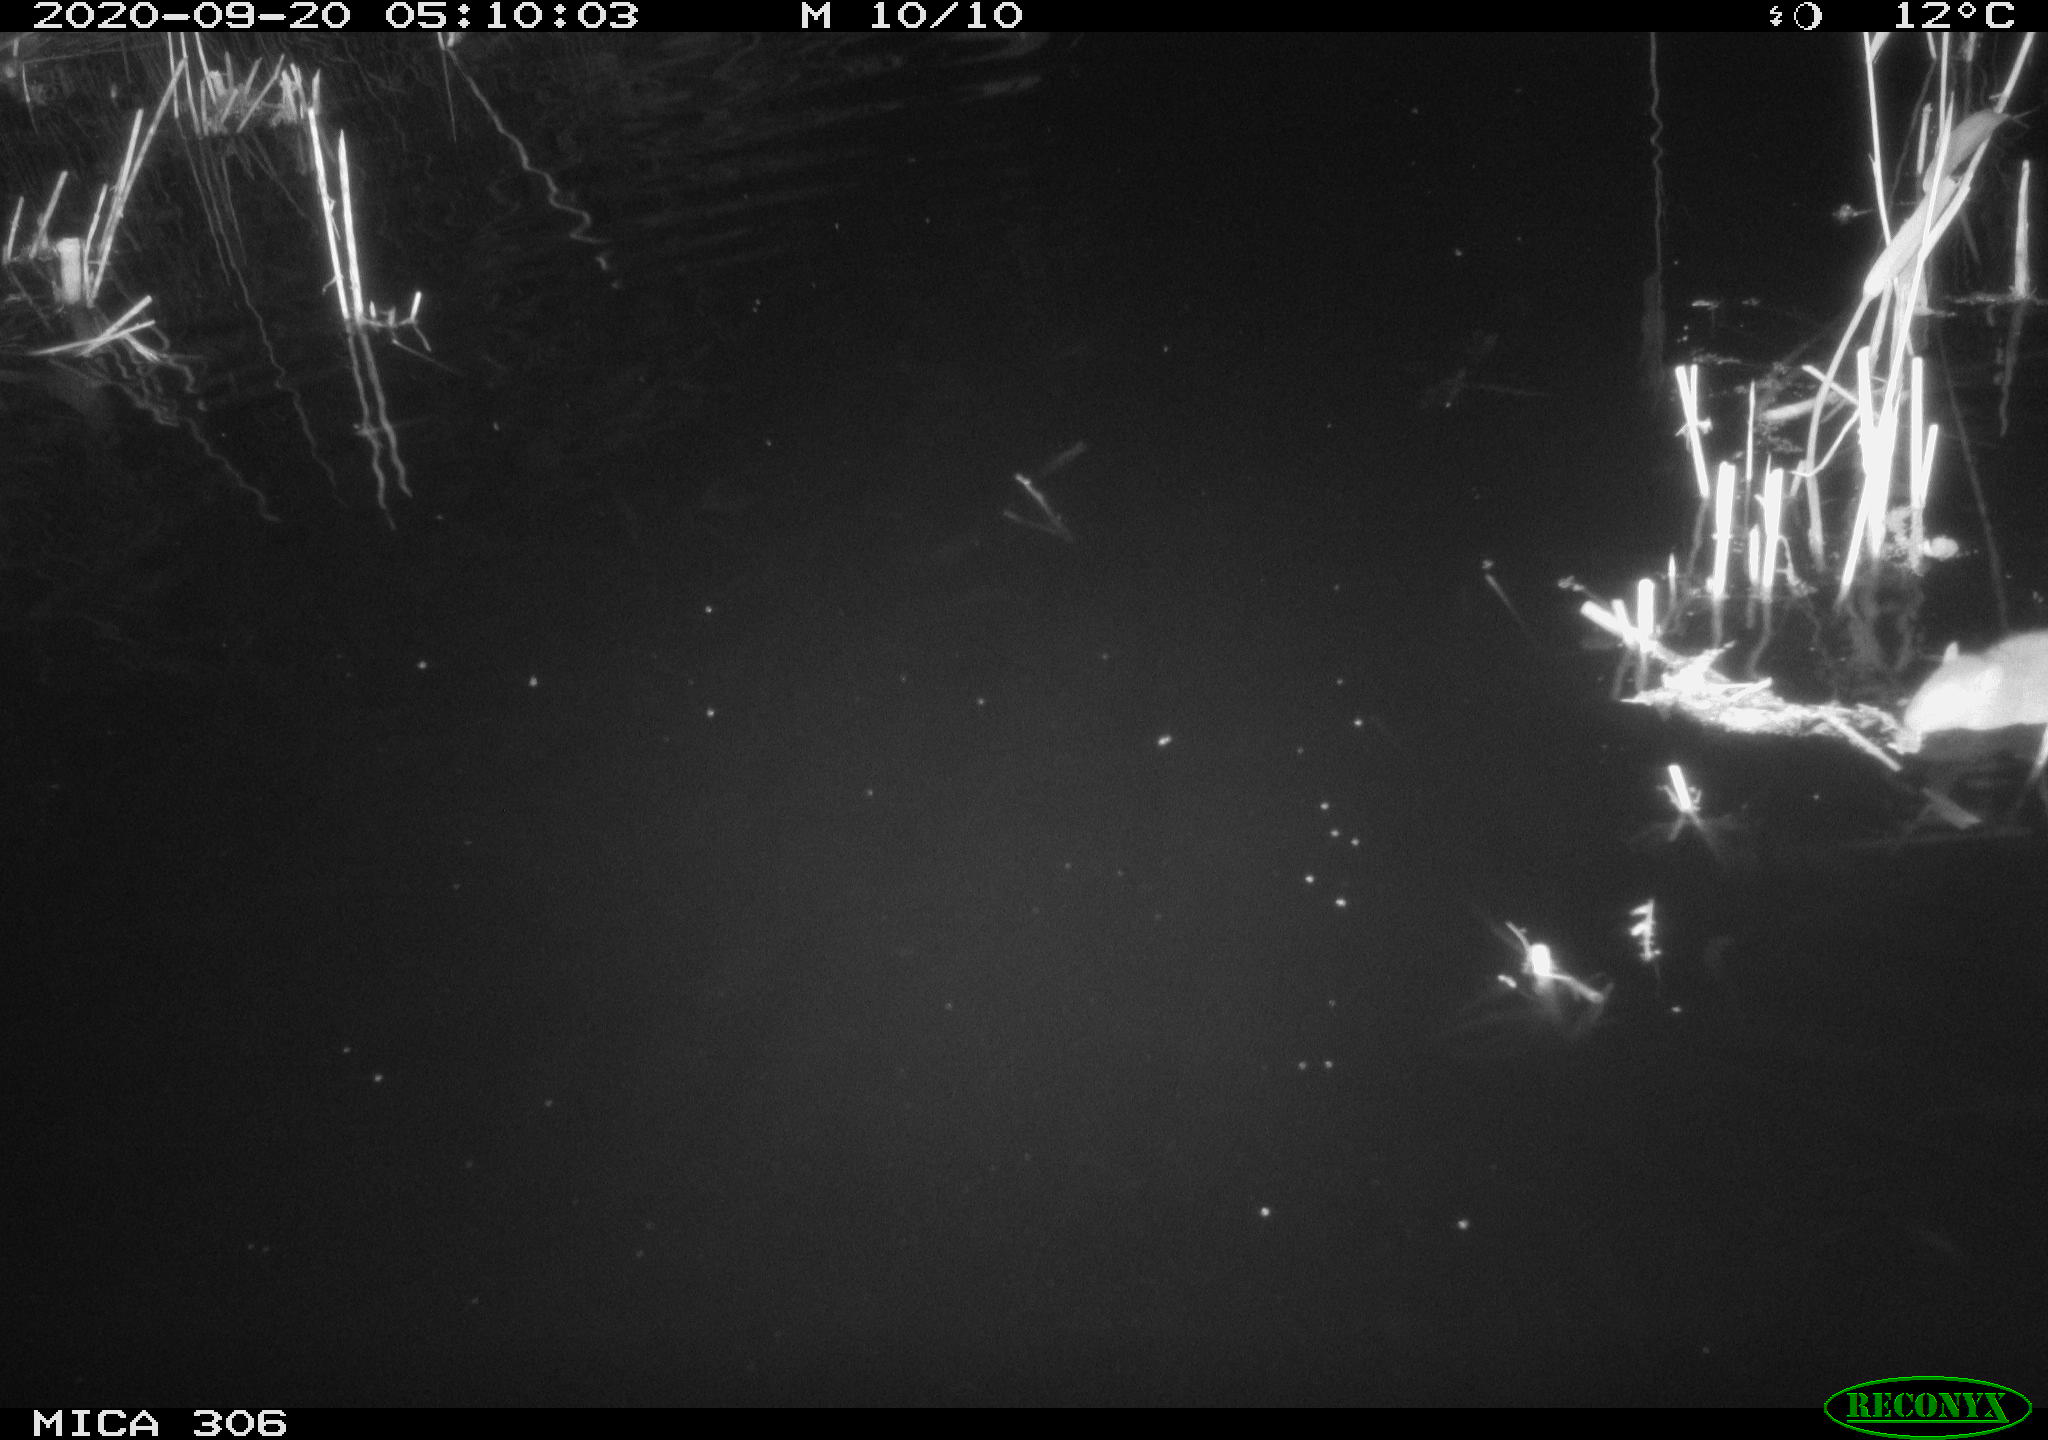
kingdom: Animalia
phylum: Chordata
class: Mammalia
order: Rodentia
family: Muridae
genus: Rattus
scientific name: Rattus norvegicus
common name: Brown rat
